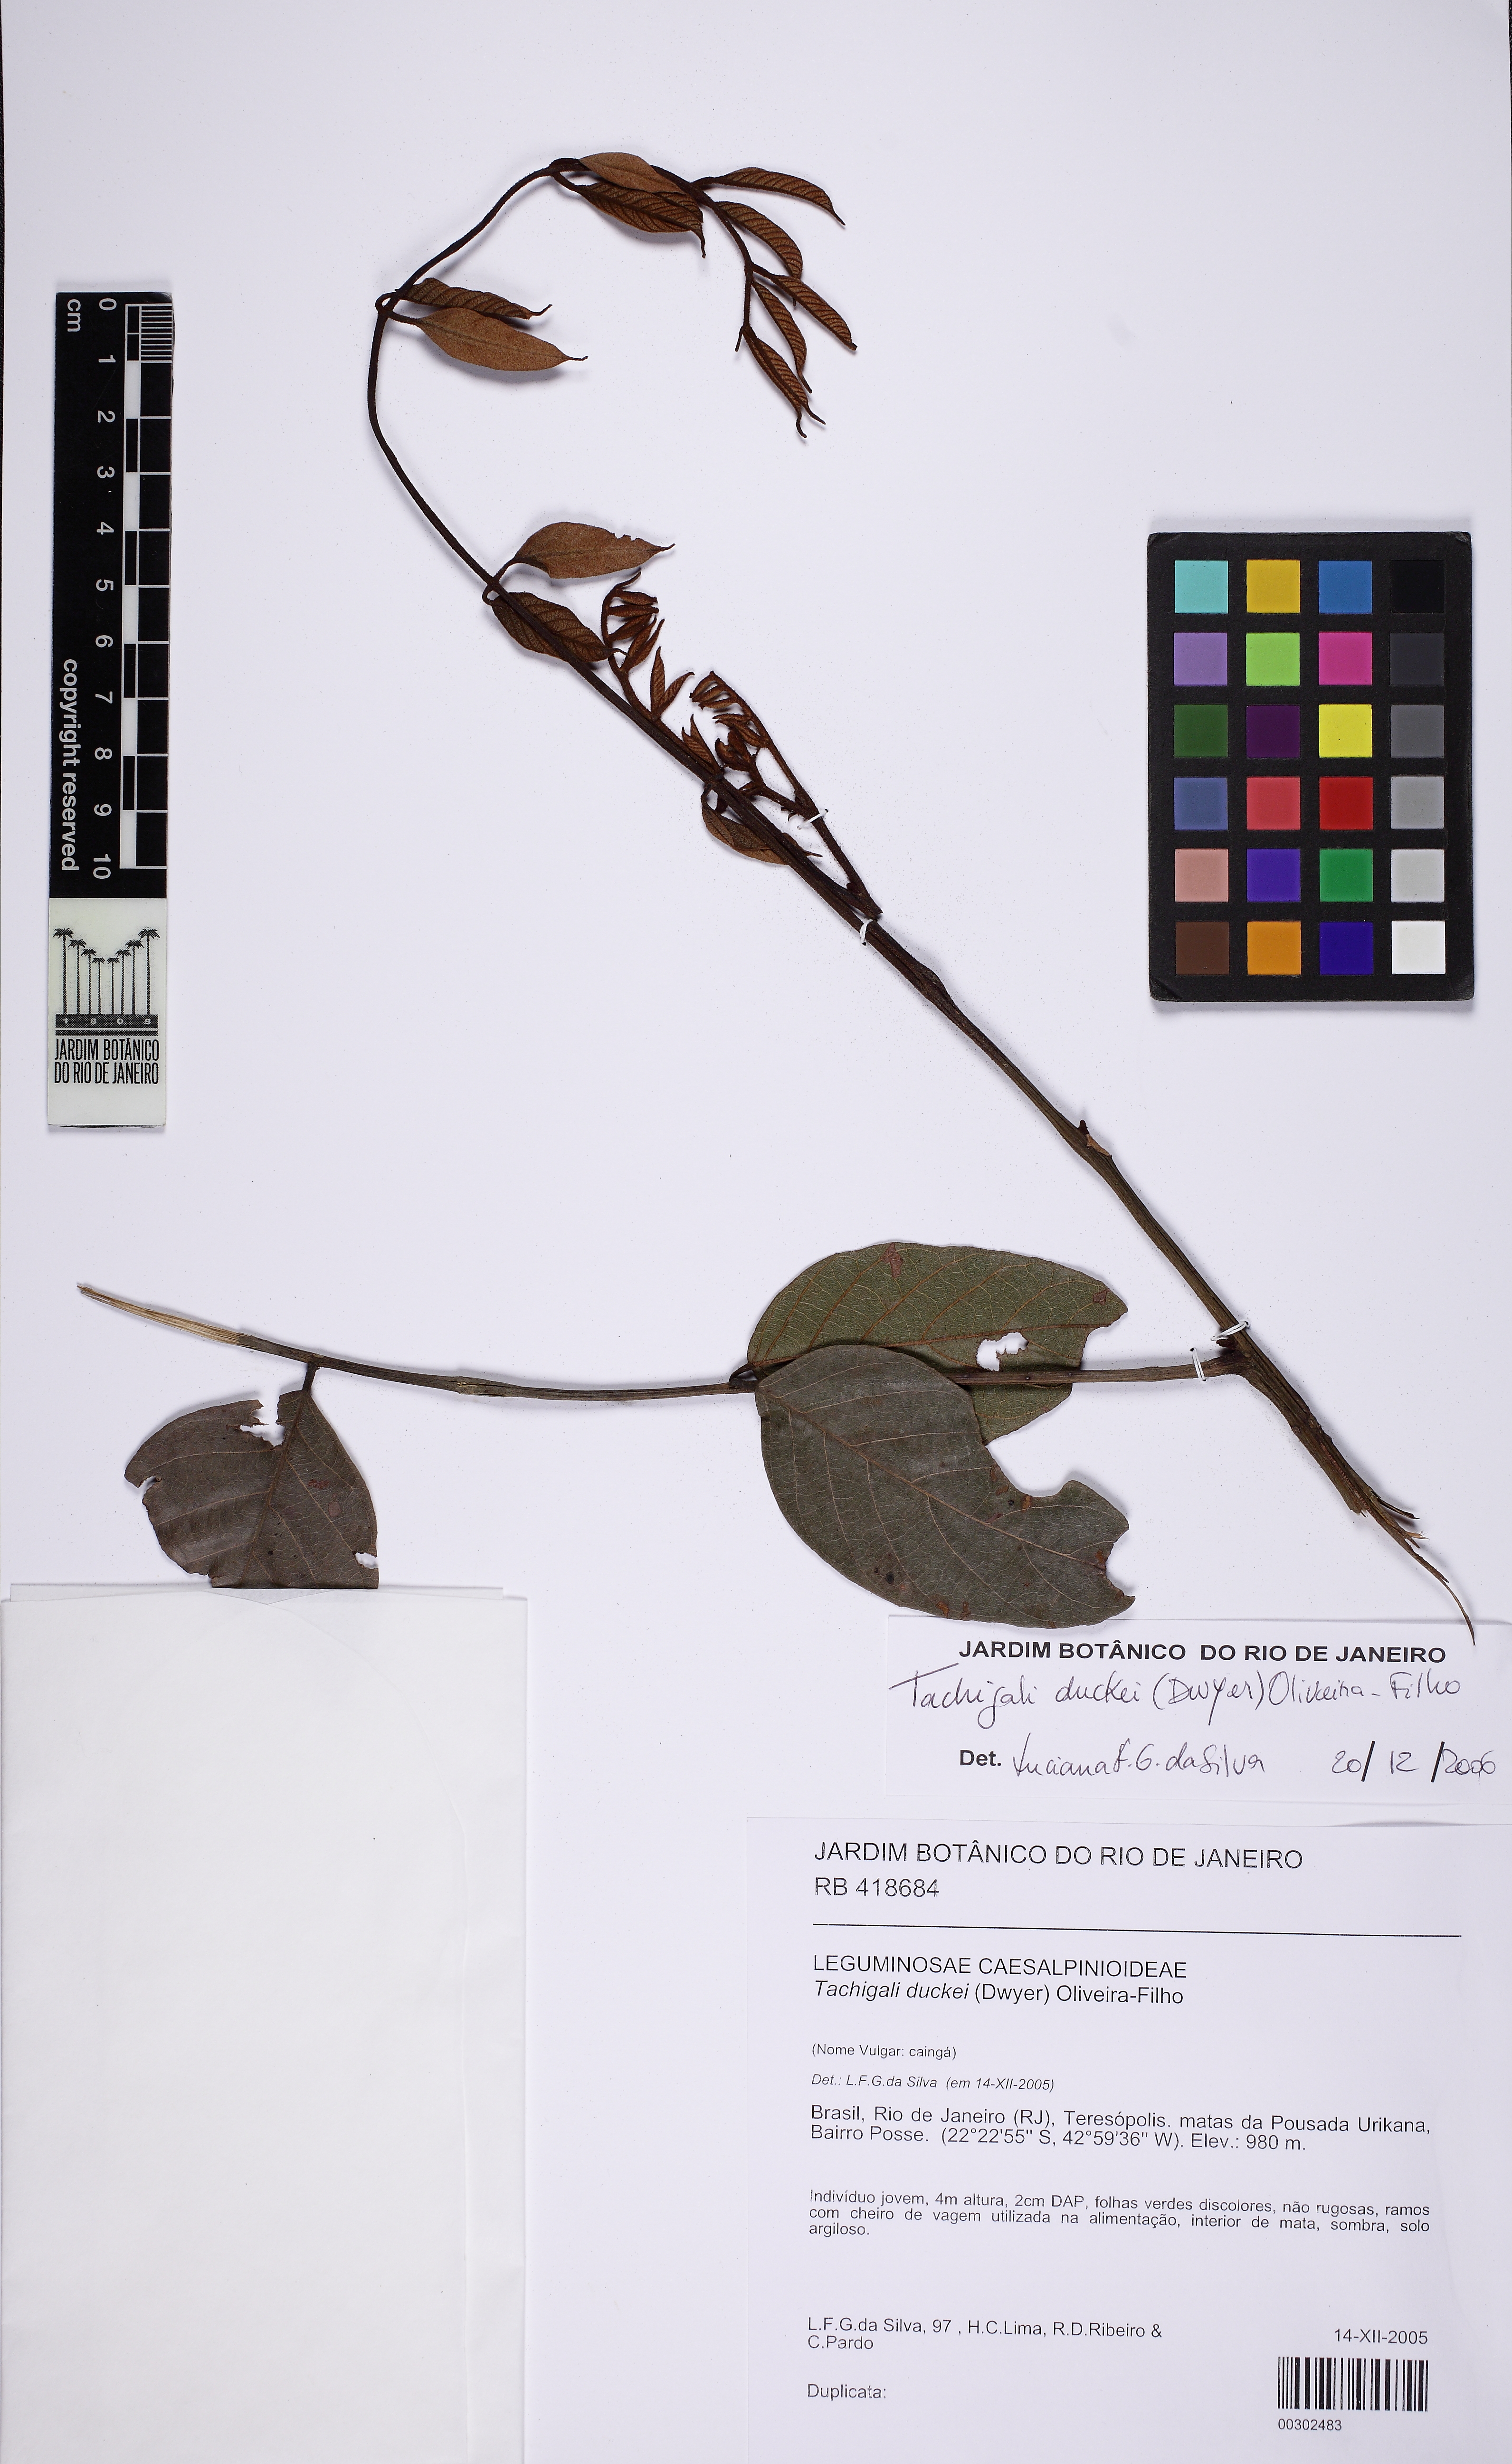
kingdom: Plantae
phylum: Tracheophyta
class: Magnoliopsida
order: Fabales
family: Fabaceae
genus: Tachigali
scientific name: Tachigali duckei
